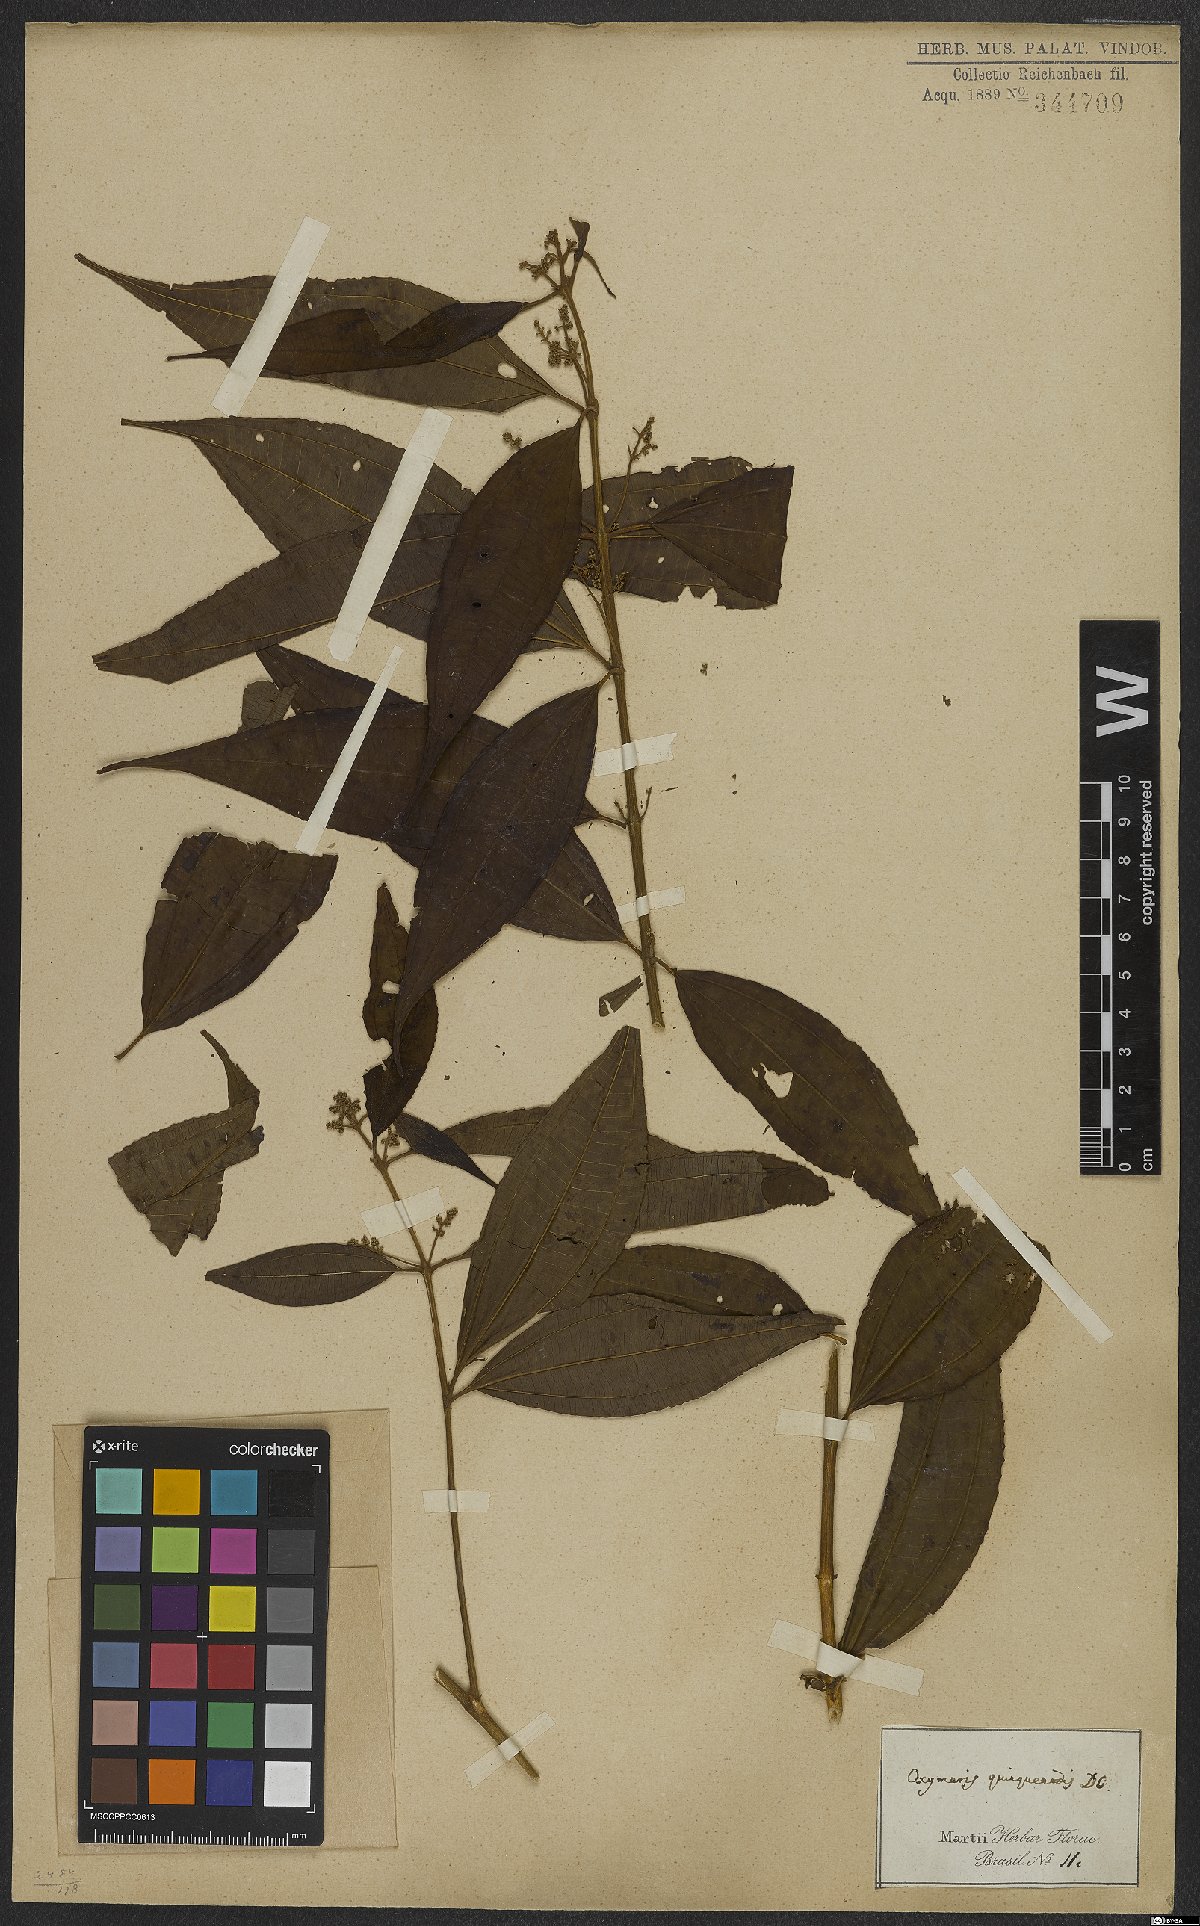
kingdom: Plantae
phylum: Tracheophyta
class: Magnoliopsida
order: Myrtales
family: Melastomataceae
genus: Miconia
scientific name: Miconia quinquenodis
